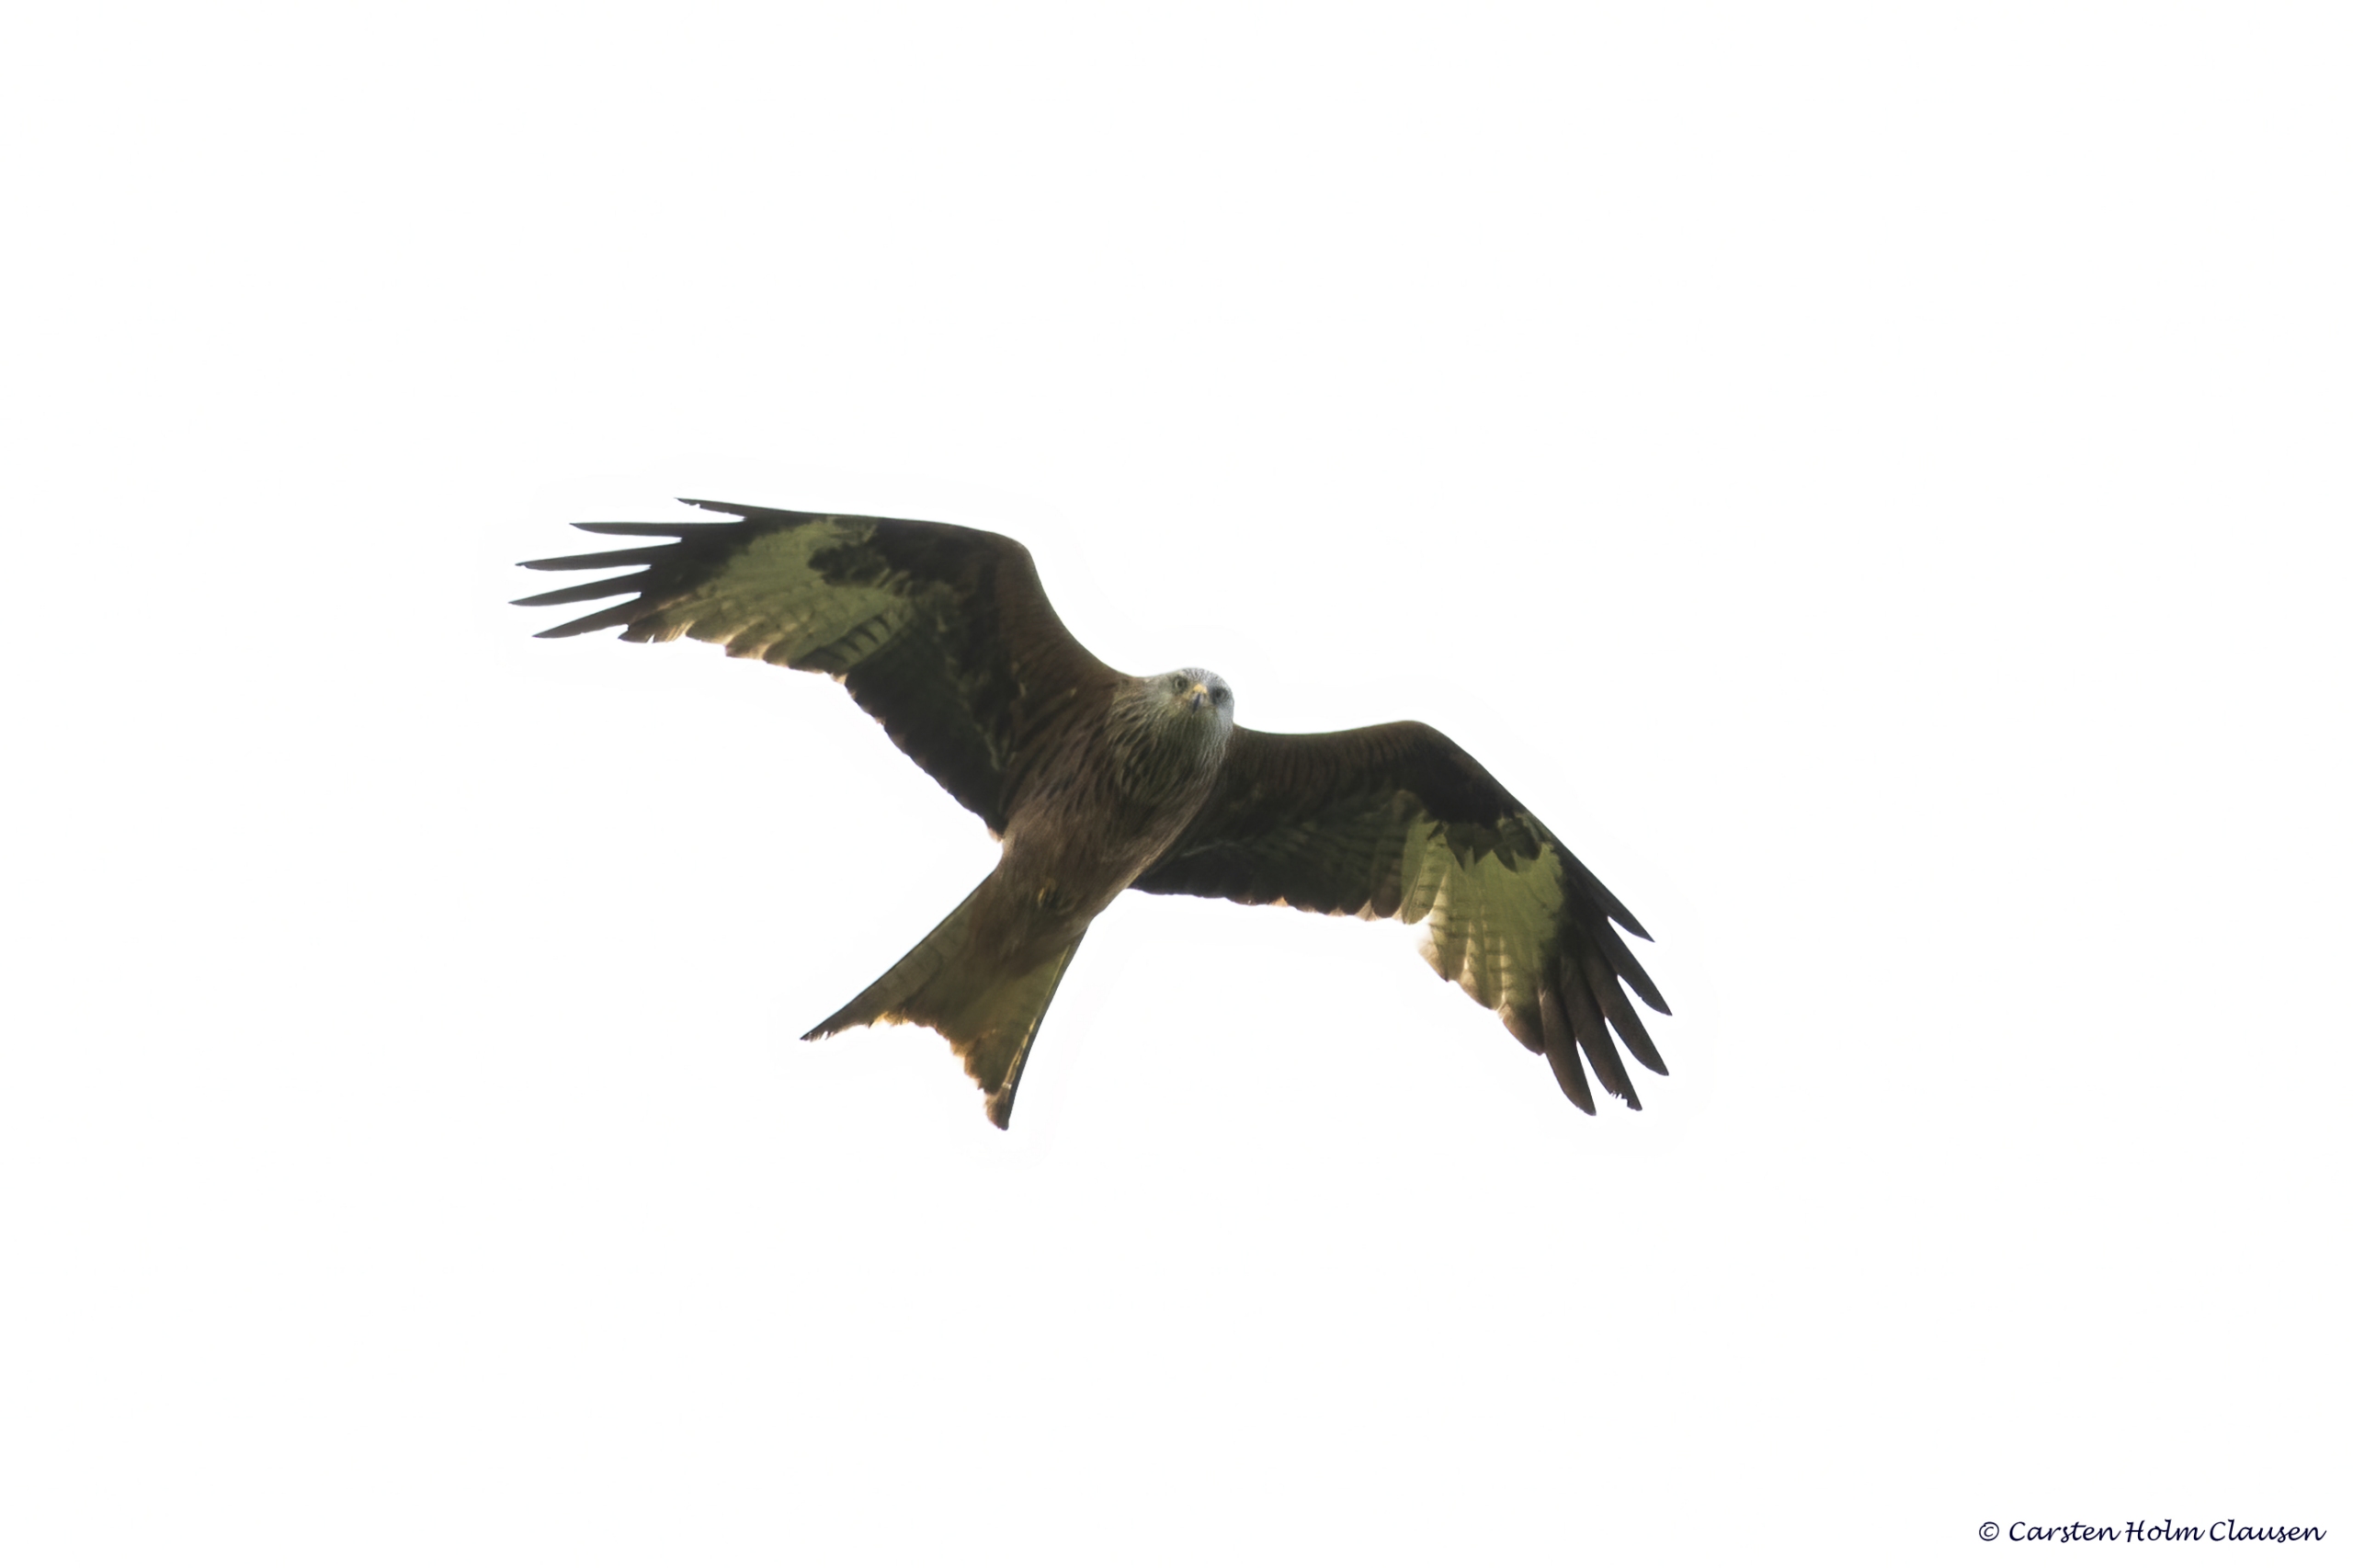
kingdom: Animalia
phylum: Chordata
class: Aves
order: Accipitriformes
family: Accipitridae
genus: Milvus
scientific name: Milvus milvus
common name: Rød glente
